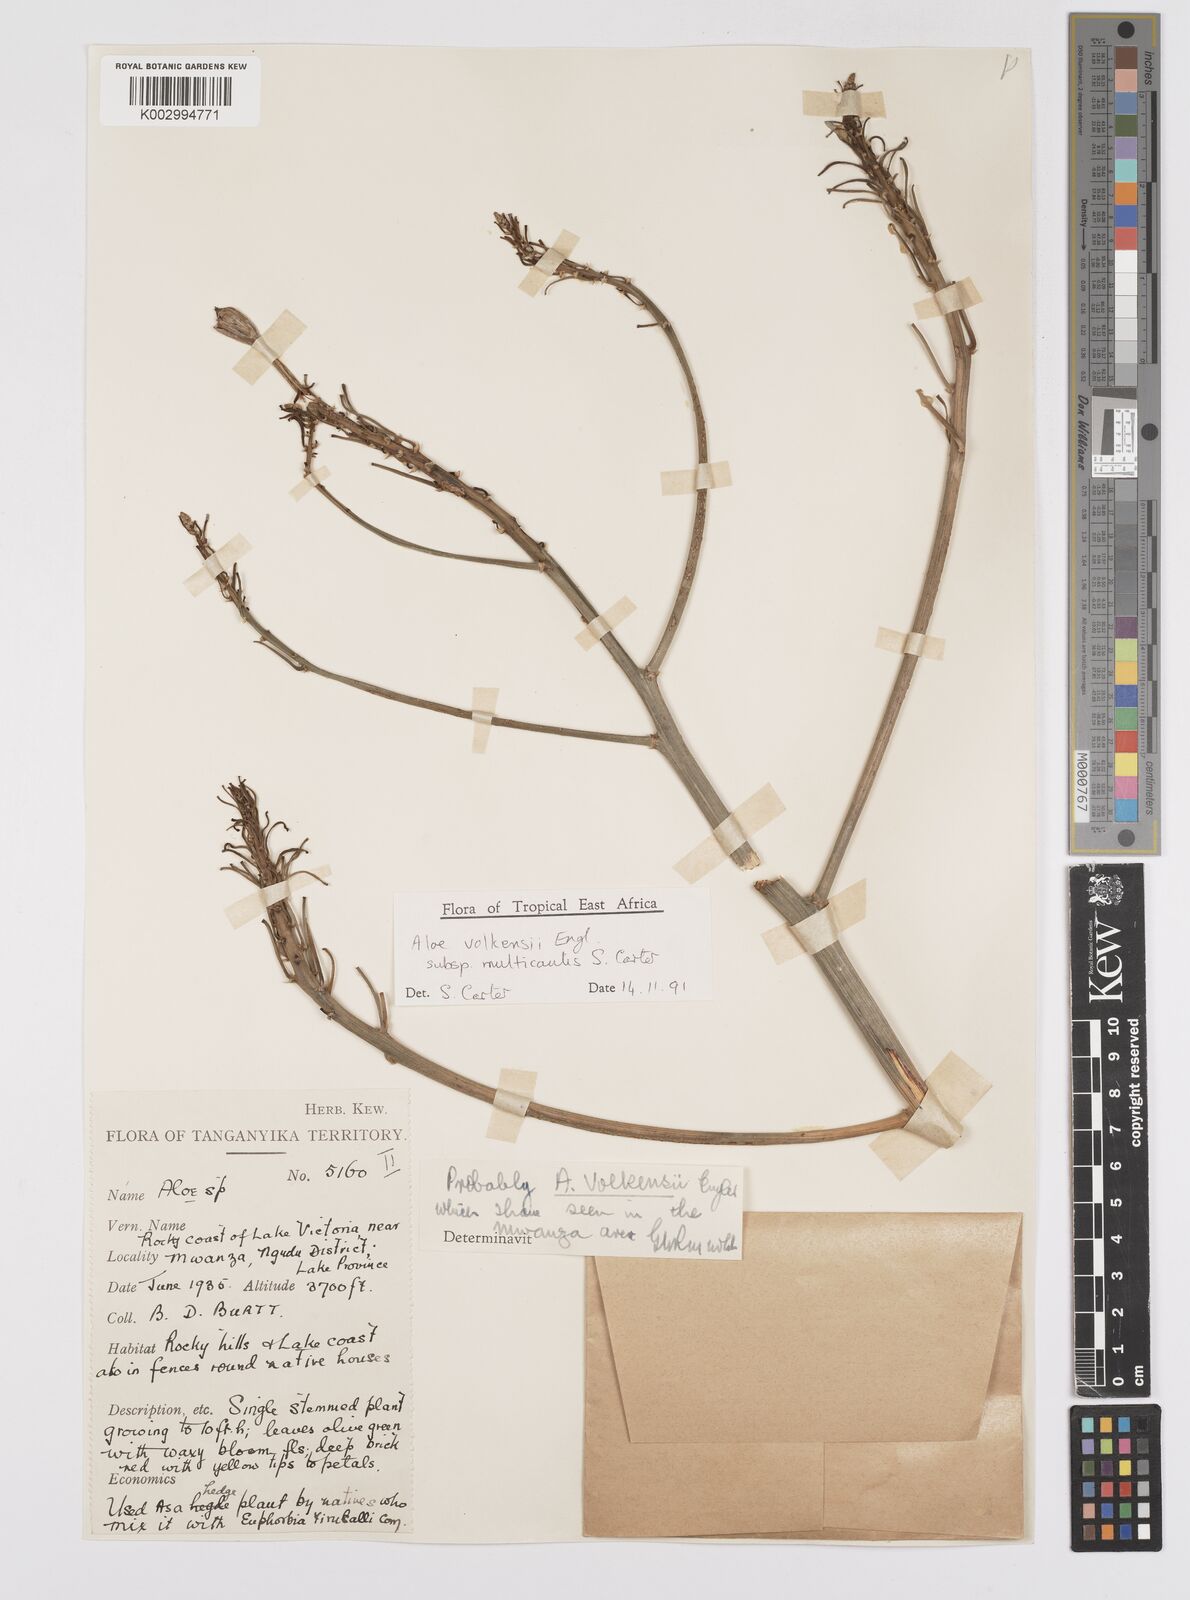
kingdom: Plantae
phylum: Tracheophyta
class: Liliopsida
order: Asparagales
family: Asphodelaceae
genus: Aloe
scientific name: Aloe volkensii
